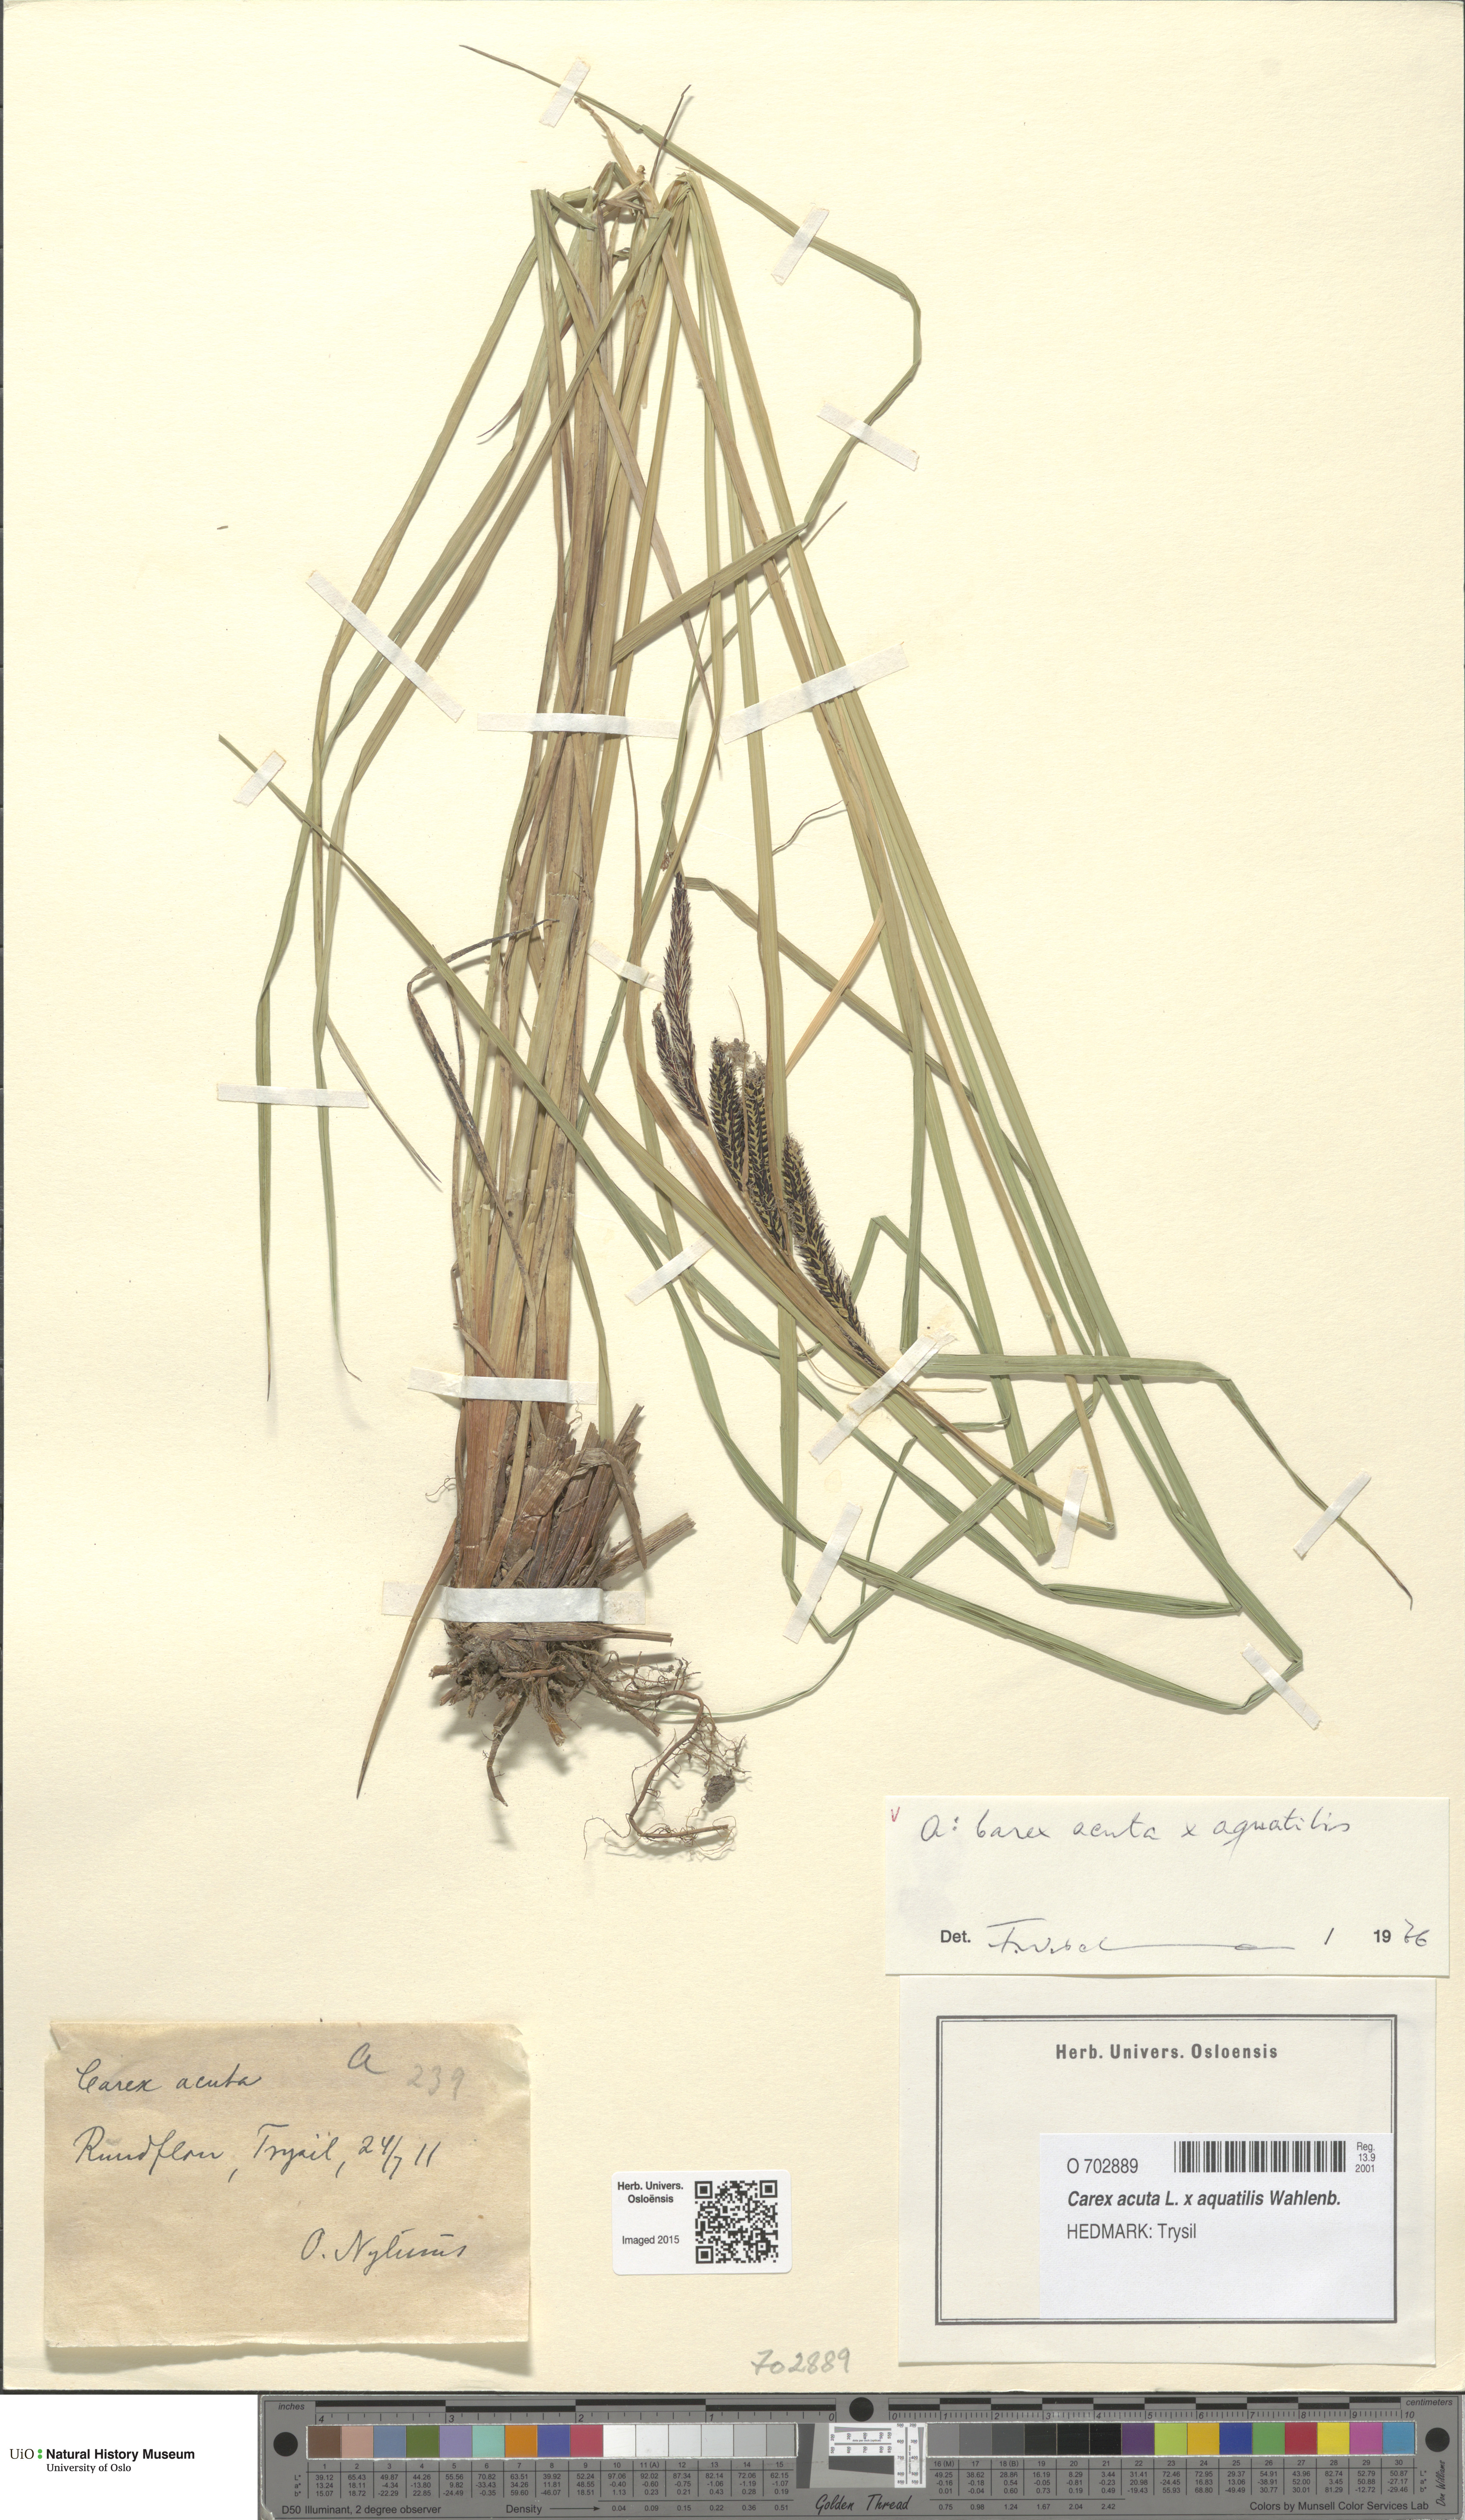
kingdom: Plantae
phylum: Tracheophyta
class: Liliopsida
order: Poales
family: Cyperaceae
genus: Carex
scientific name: Carex
